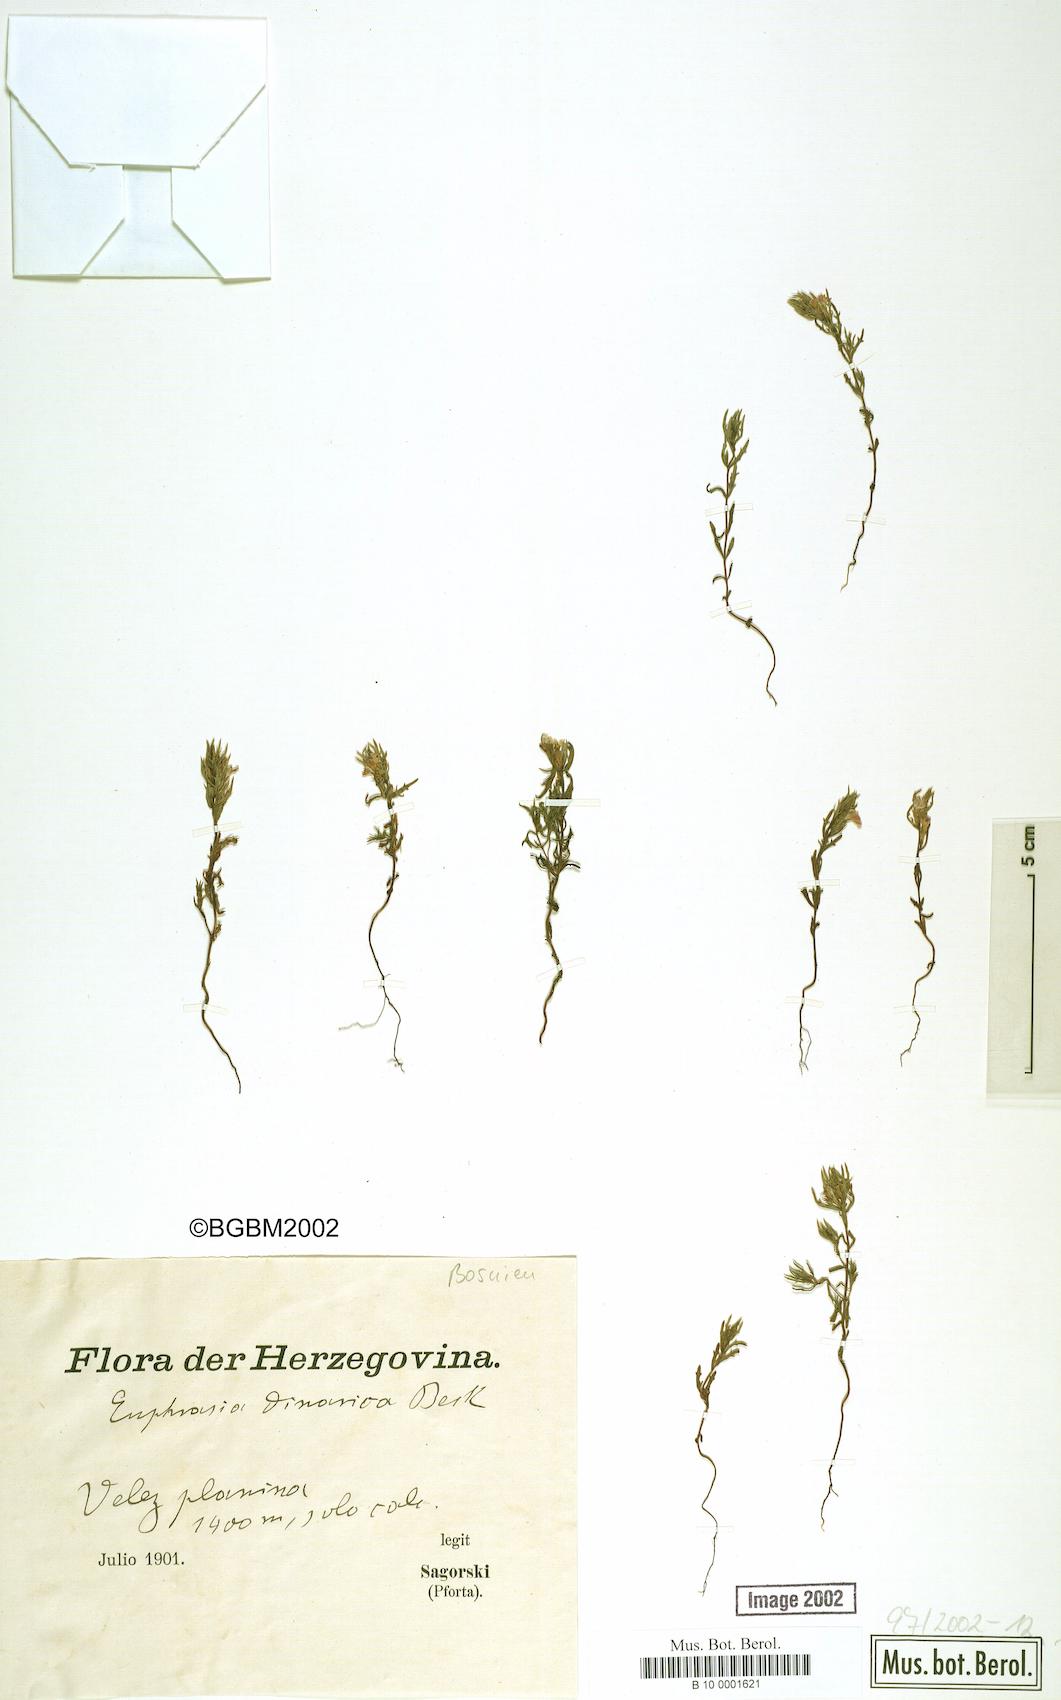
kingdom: Plantae
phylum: Tracheophyta
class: Magnoliopsida
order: Lamiales
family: Orobanchaceae
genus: Euphrasia
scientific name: Euphrasia dinarica
